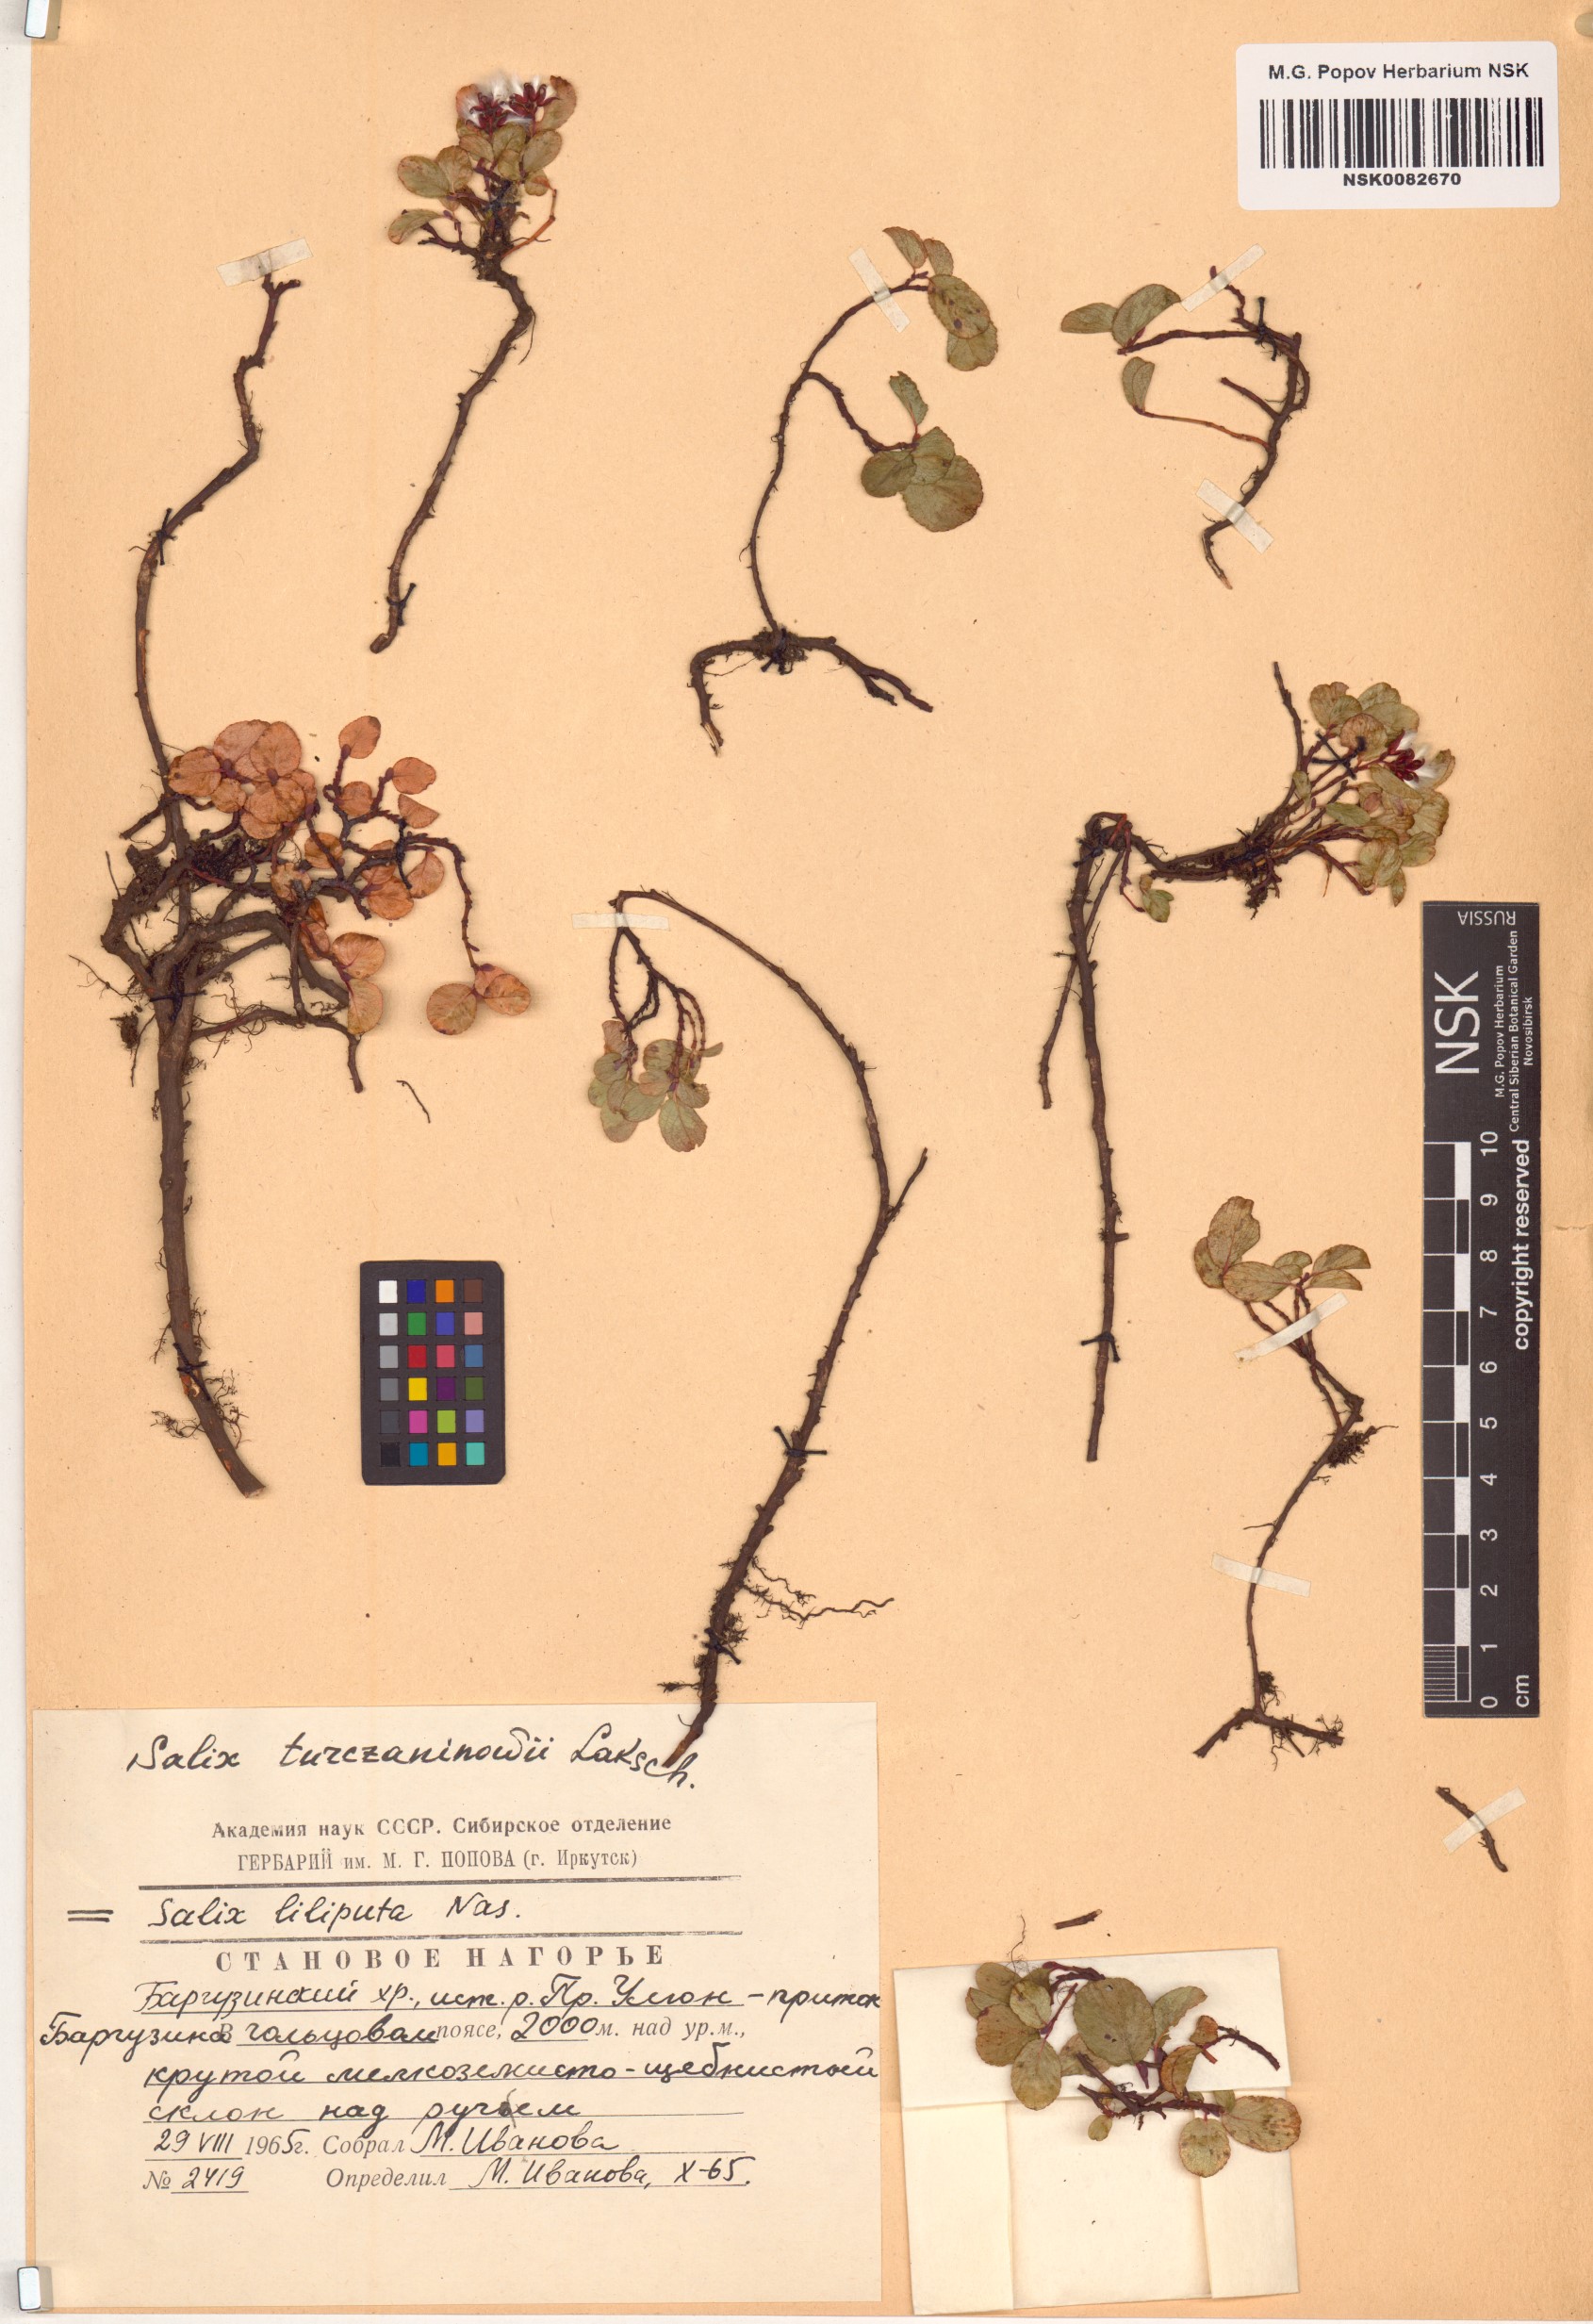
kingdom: Plantae
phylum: Tracheophyta
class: Magnoliopsida
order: Malpighiales
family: Salicaceae
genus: Salix
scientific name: Salix turczaninowii
